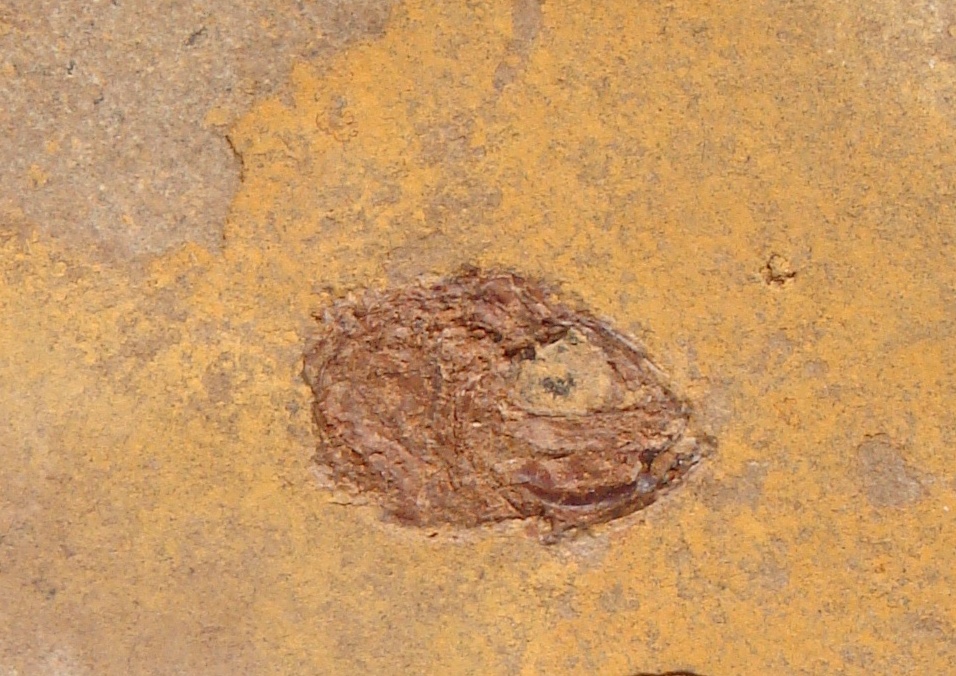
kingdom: Animalia
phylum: Chordata
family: Leptolepididae
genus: Leptolepis
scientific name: Leptolepis normandica
